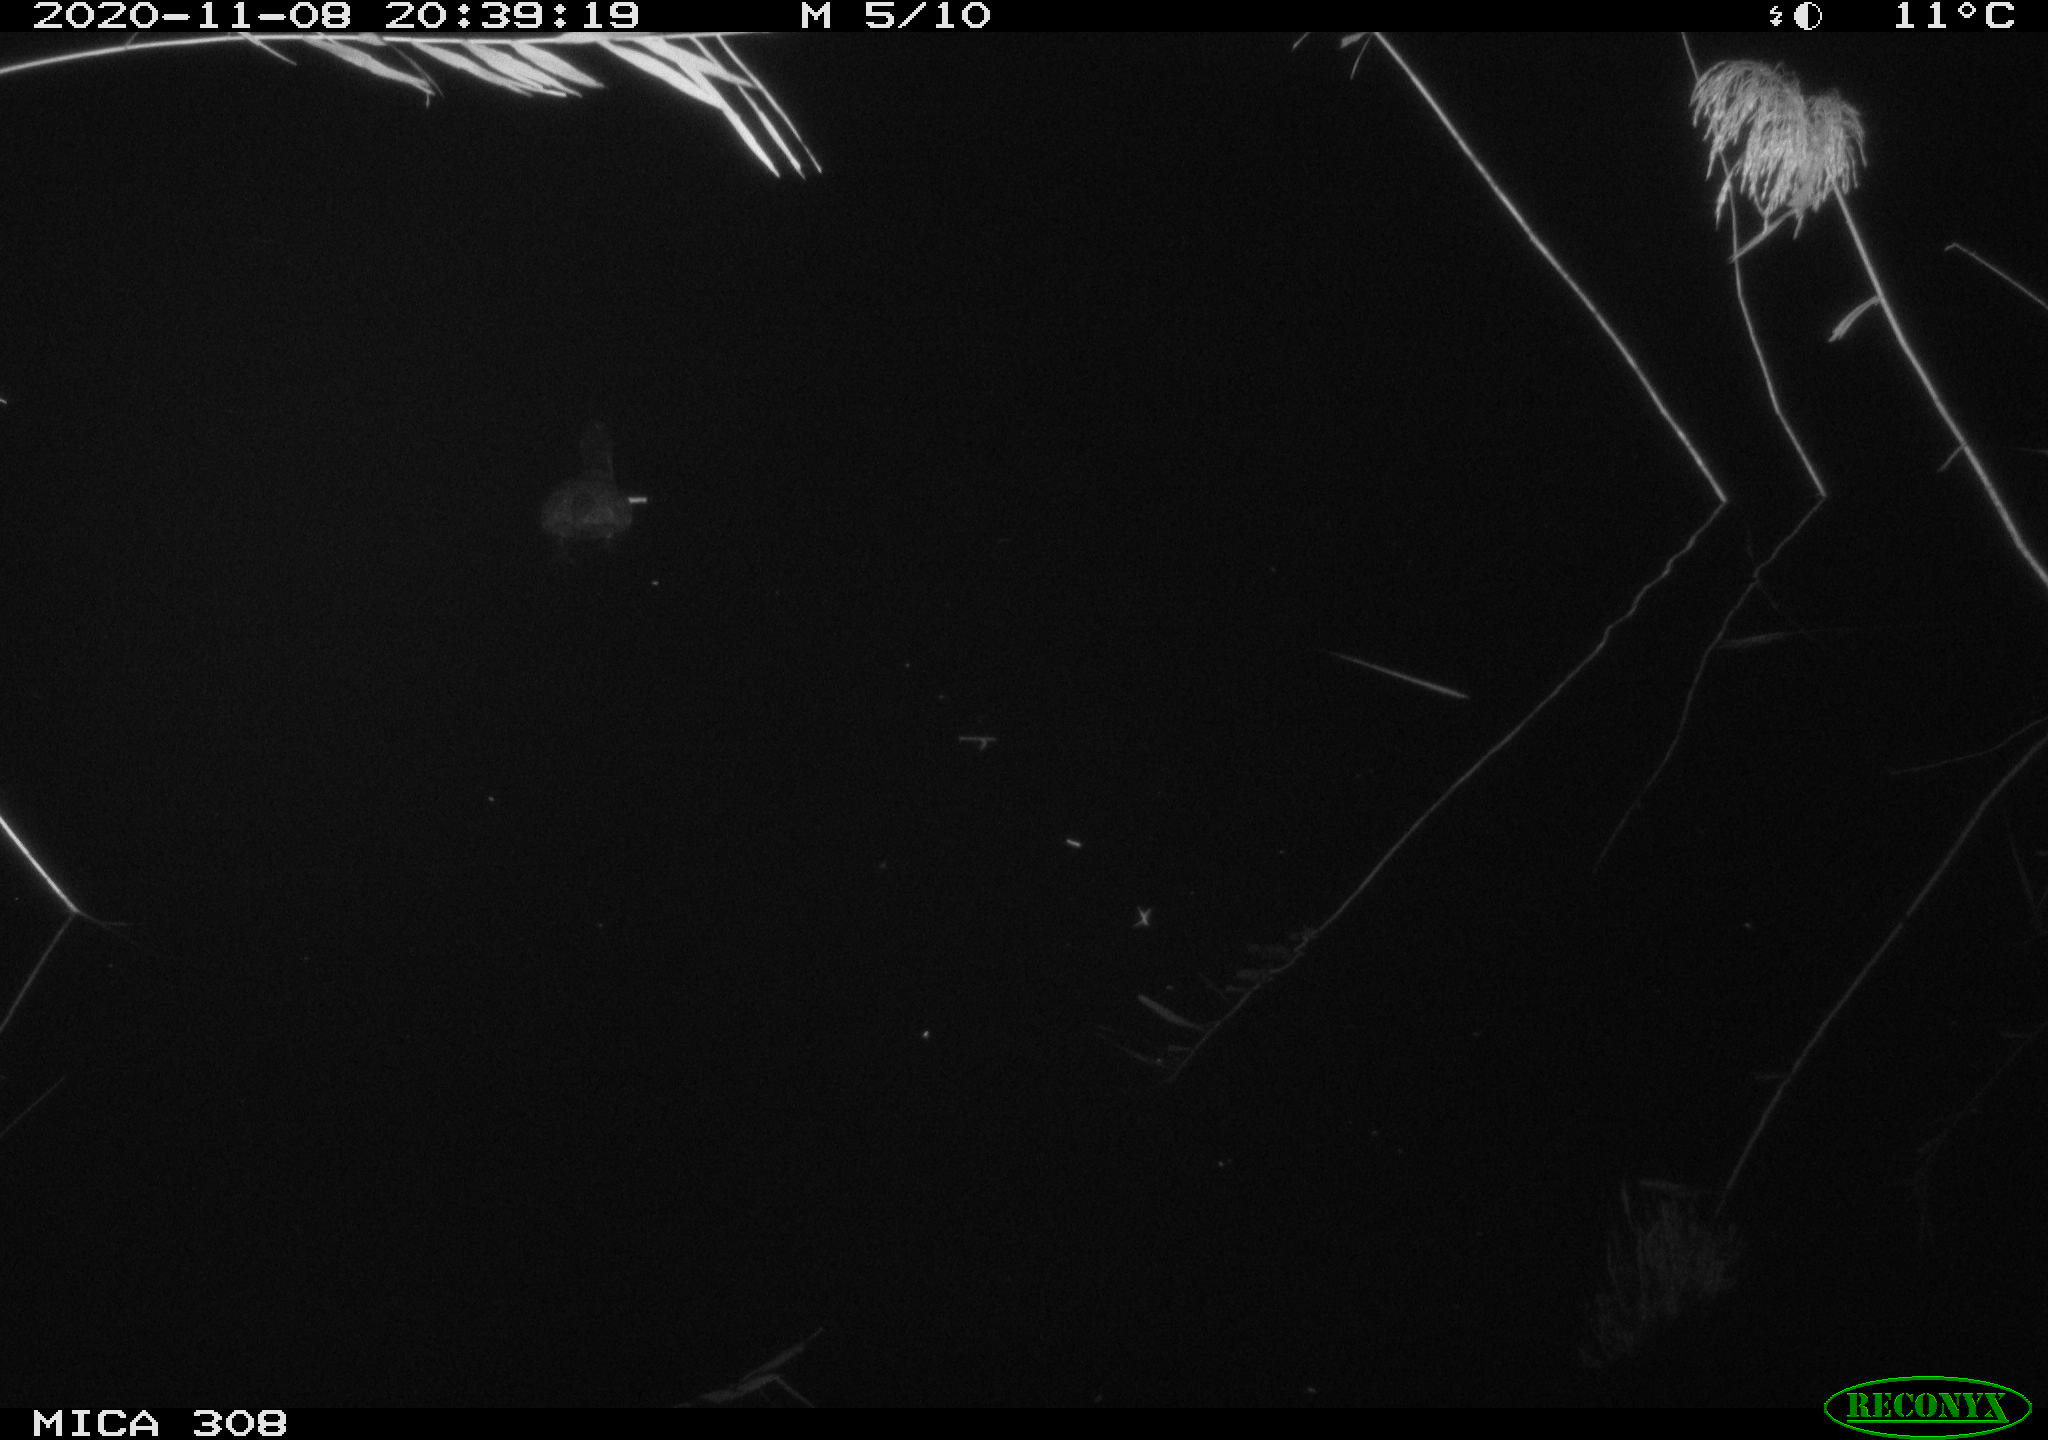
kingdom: Animalia
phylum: Chordata
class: Aves
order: Gruiformes
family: Rallidae
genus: Fulica
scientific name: Fulica atra
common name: Eurasian coot
